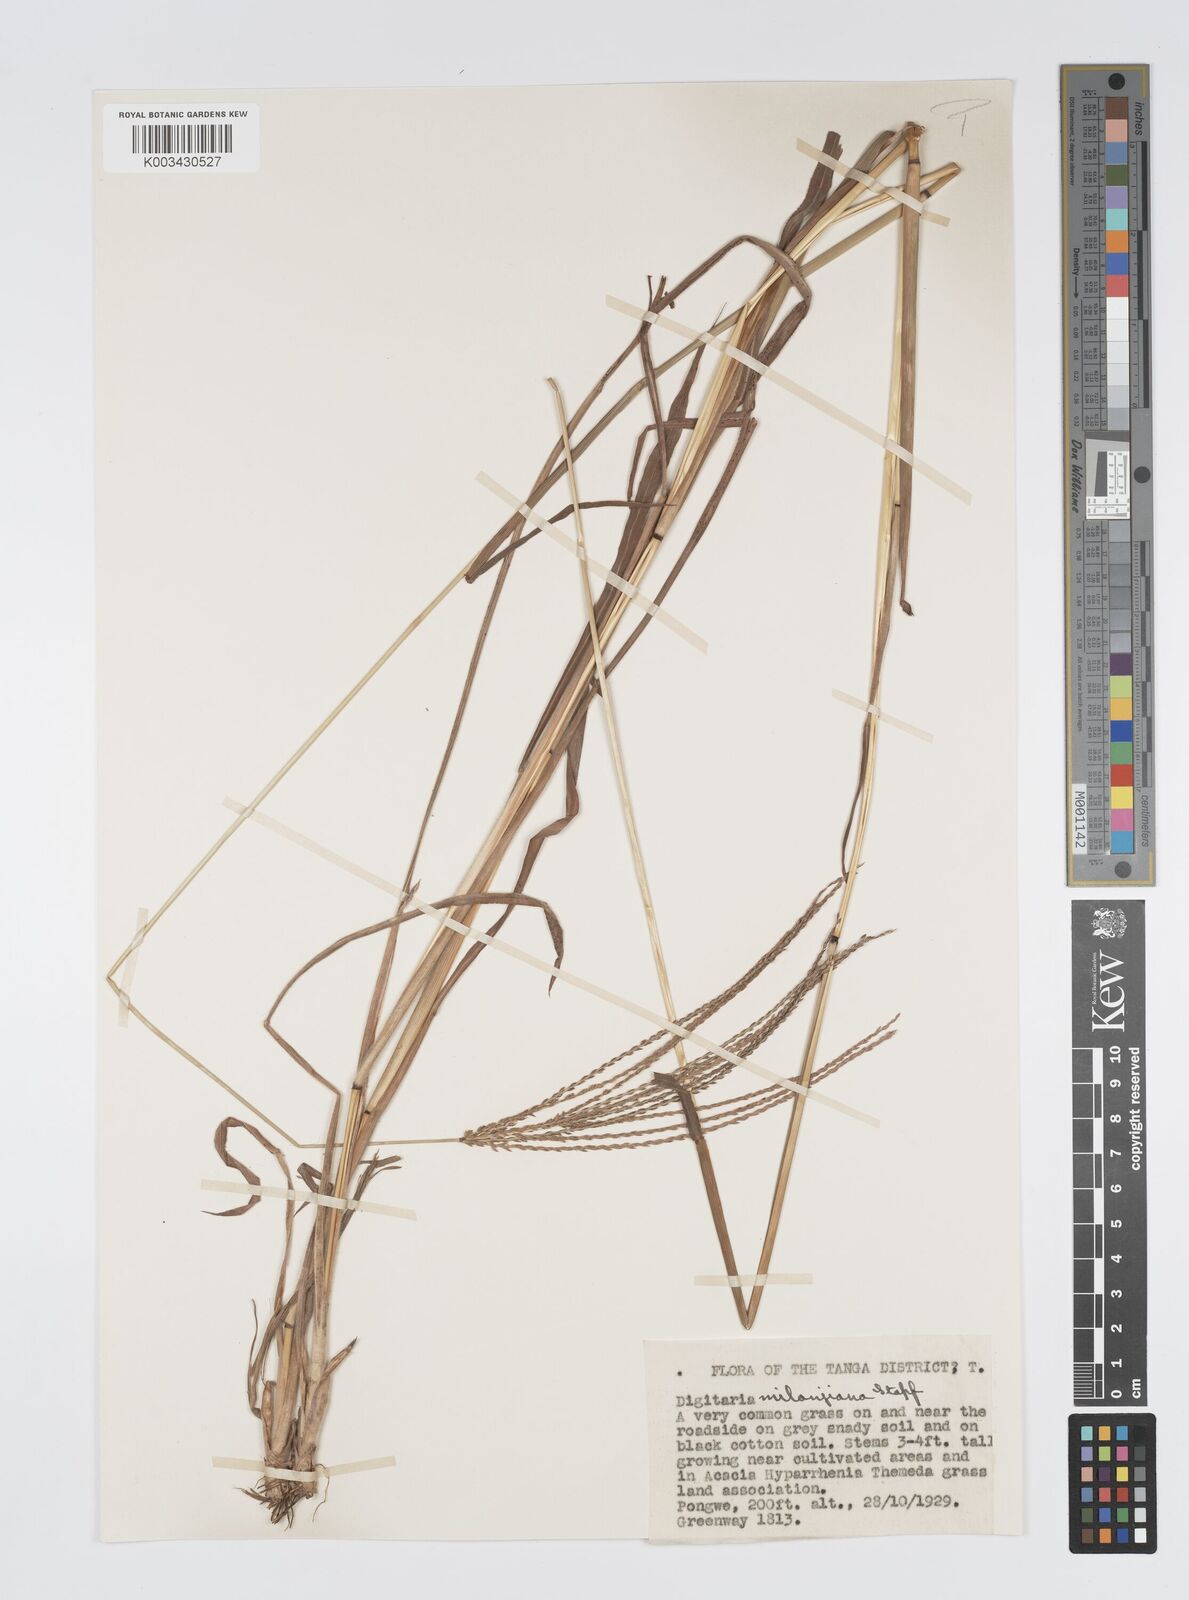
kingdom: Plantae
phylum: Tracheophyta
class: Liliopsida
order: Poales
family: Poaceae
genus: Digitaria
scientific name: Digitaria milanjiana
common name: Madagascar crabgrass
